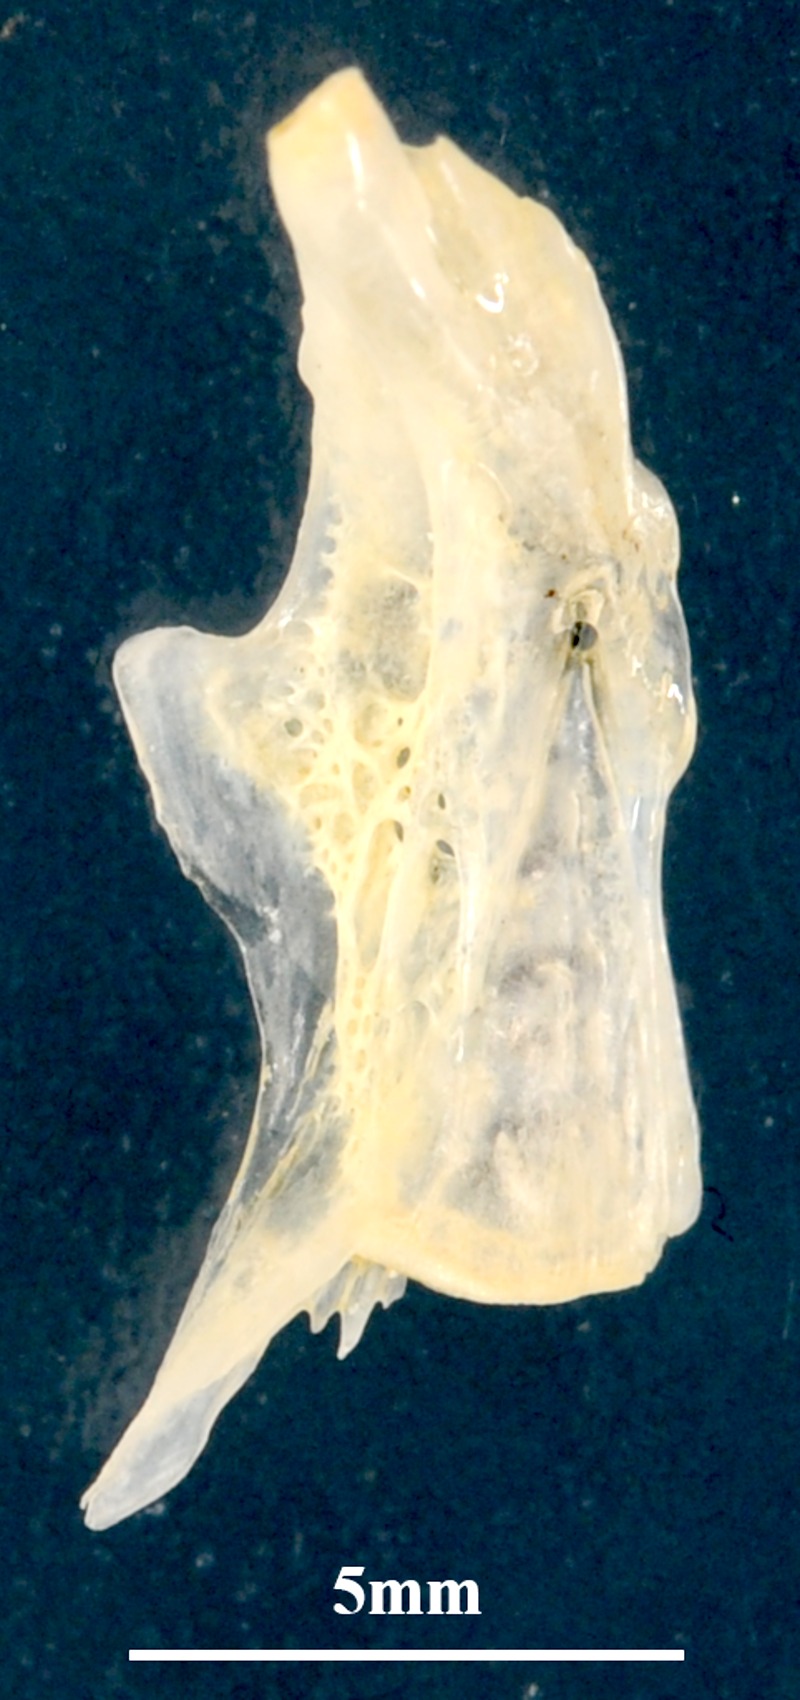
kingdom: Animalia
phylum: Chordata
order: Mugiliformes
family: Mugilidae
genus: Chelon
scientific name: Chelon labrosus
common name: Thick-lipped mullet
